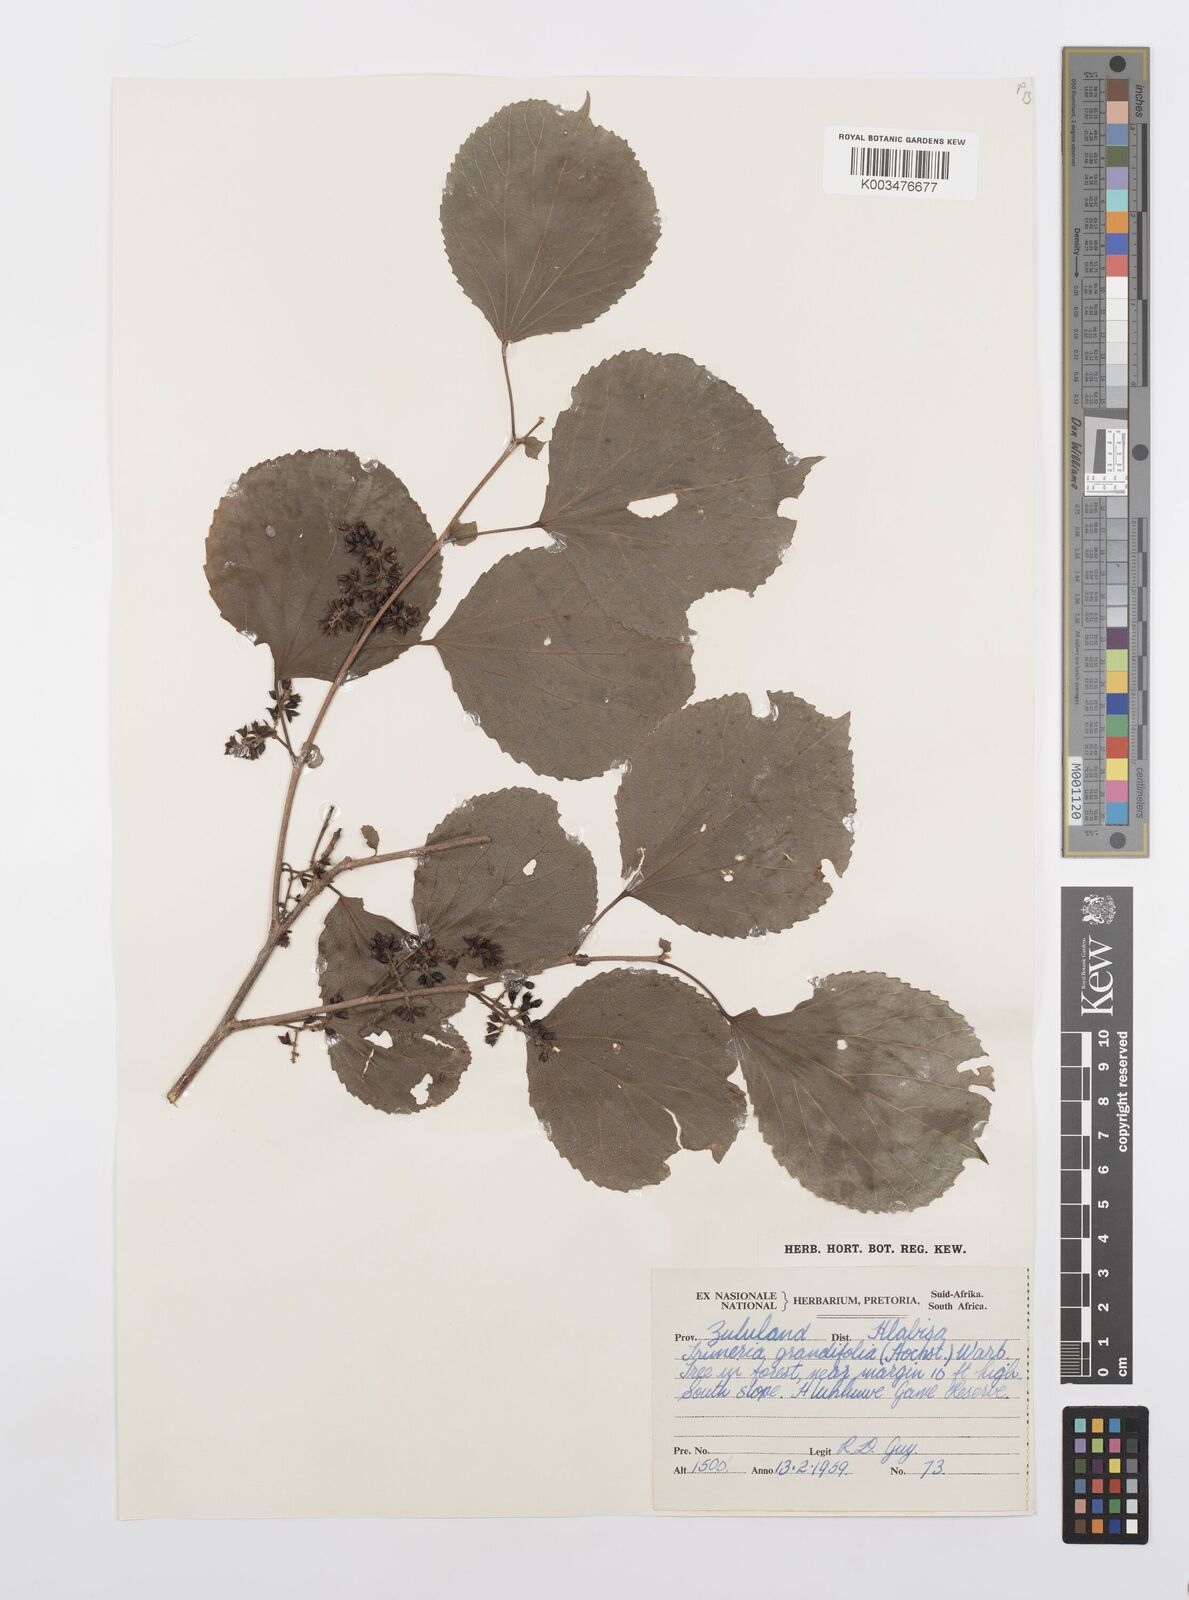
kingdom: Plantae
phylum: Tracheophyta
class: Magnoliopsida
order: Malpighiales
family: Salicaceae
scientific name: Salicaceae
